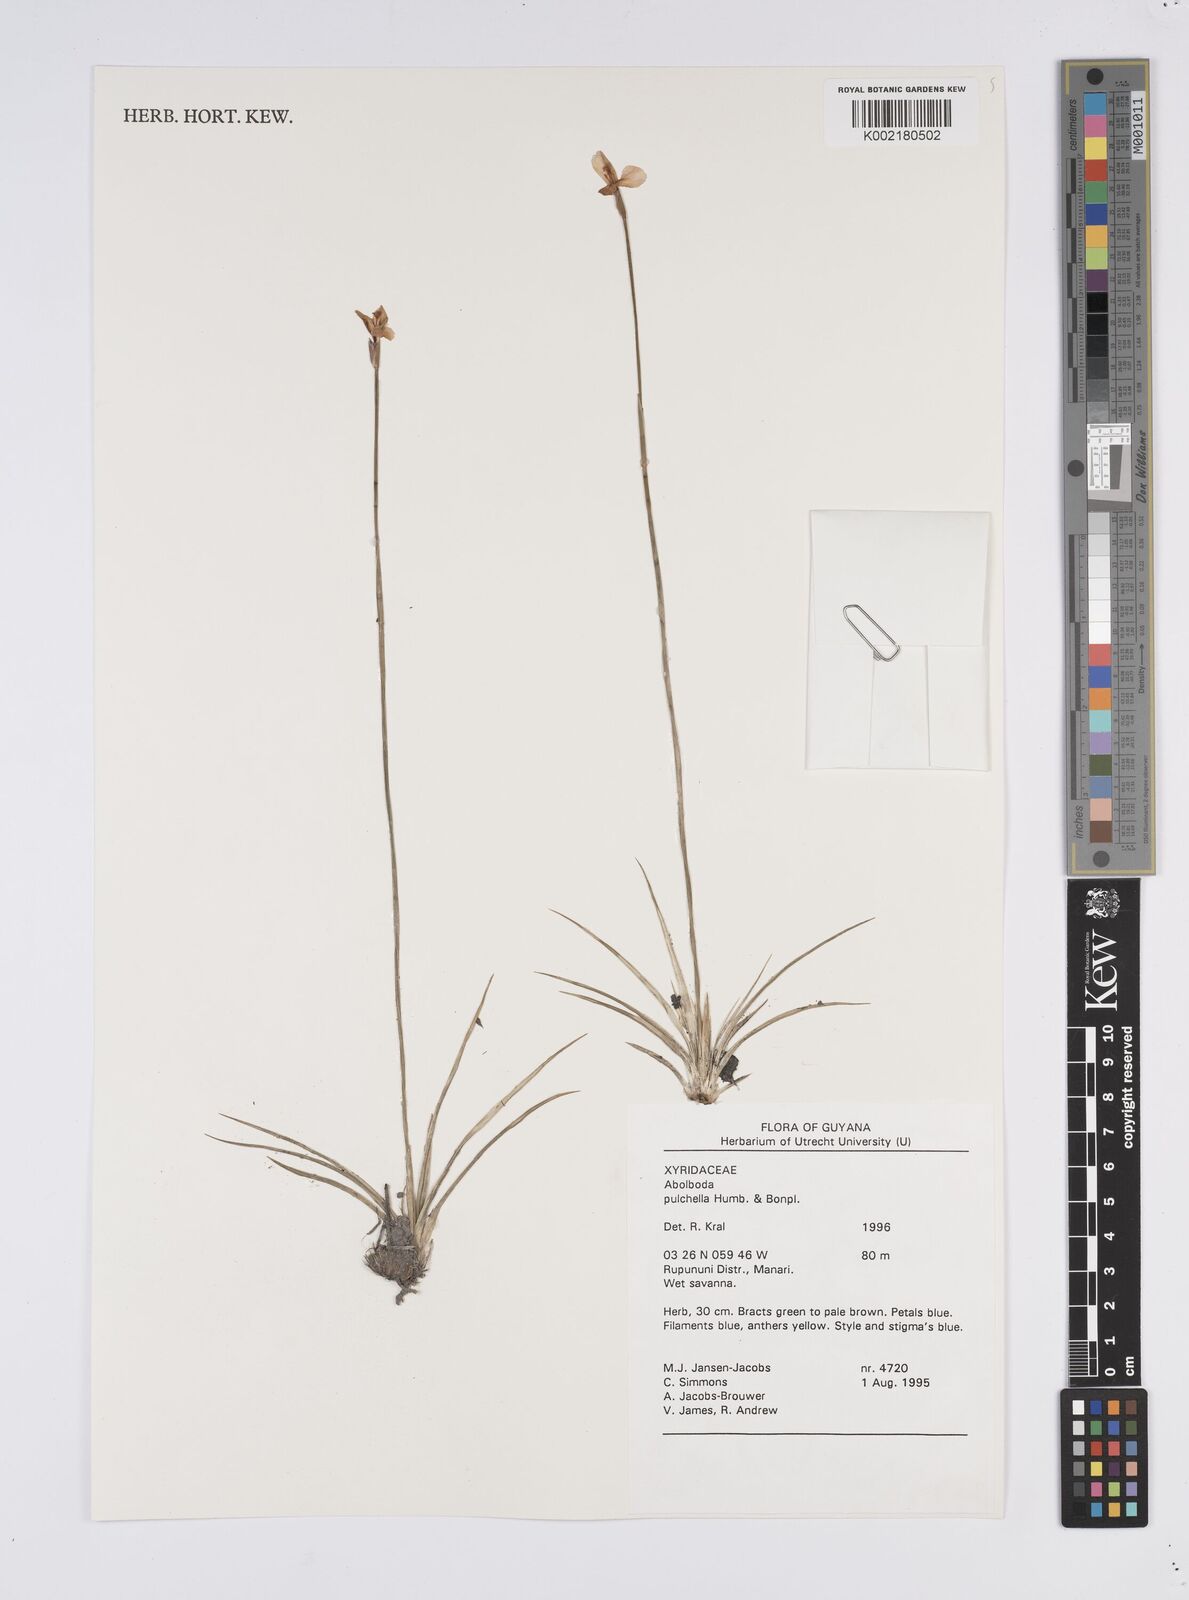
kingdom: Plantae
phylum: Tracheophyta
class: Liliopsida
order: Poales
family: Xyridaceae
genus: Abolboda
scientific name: Abolboda pulchella
